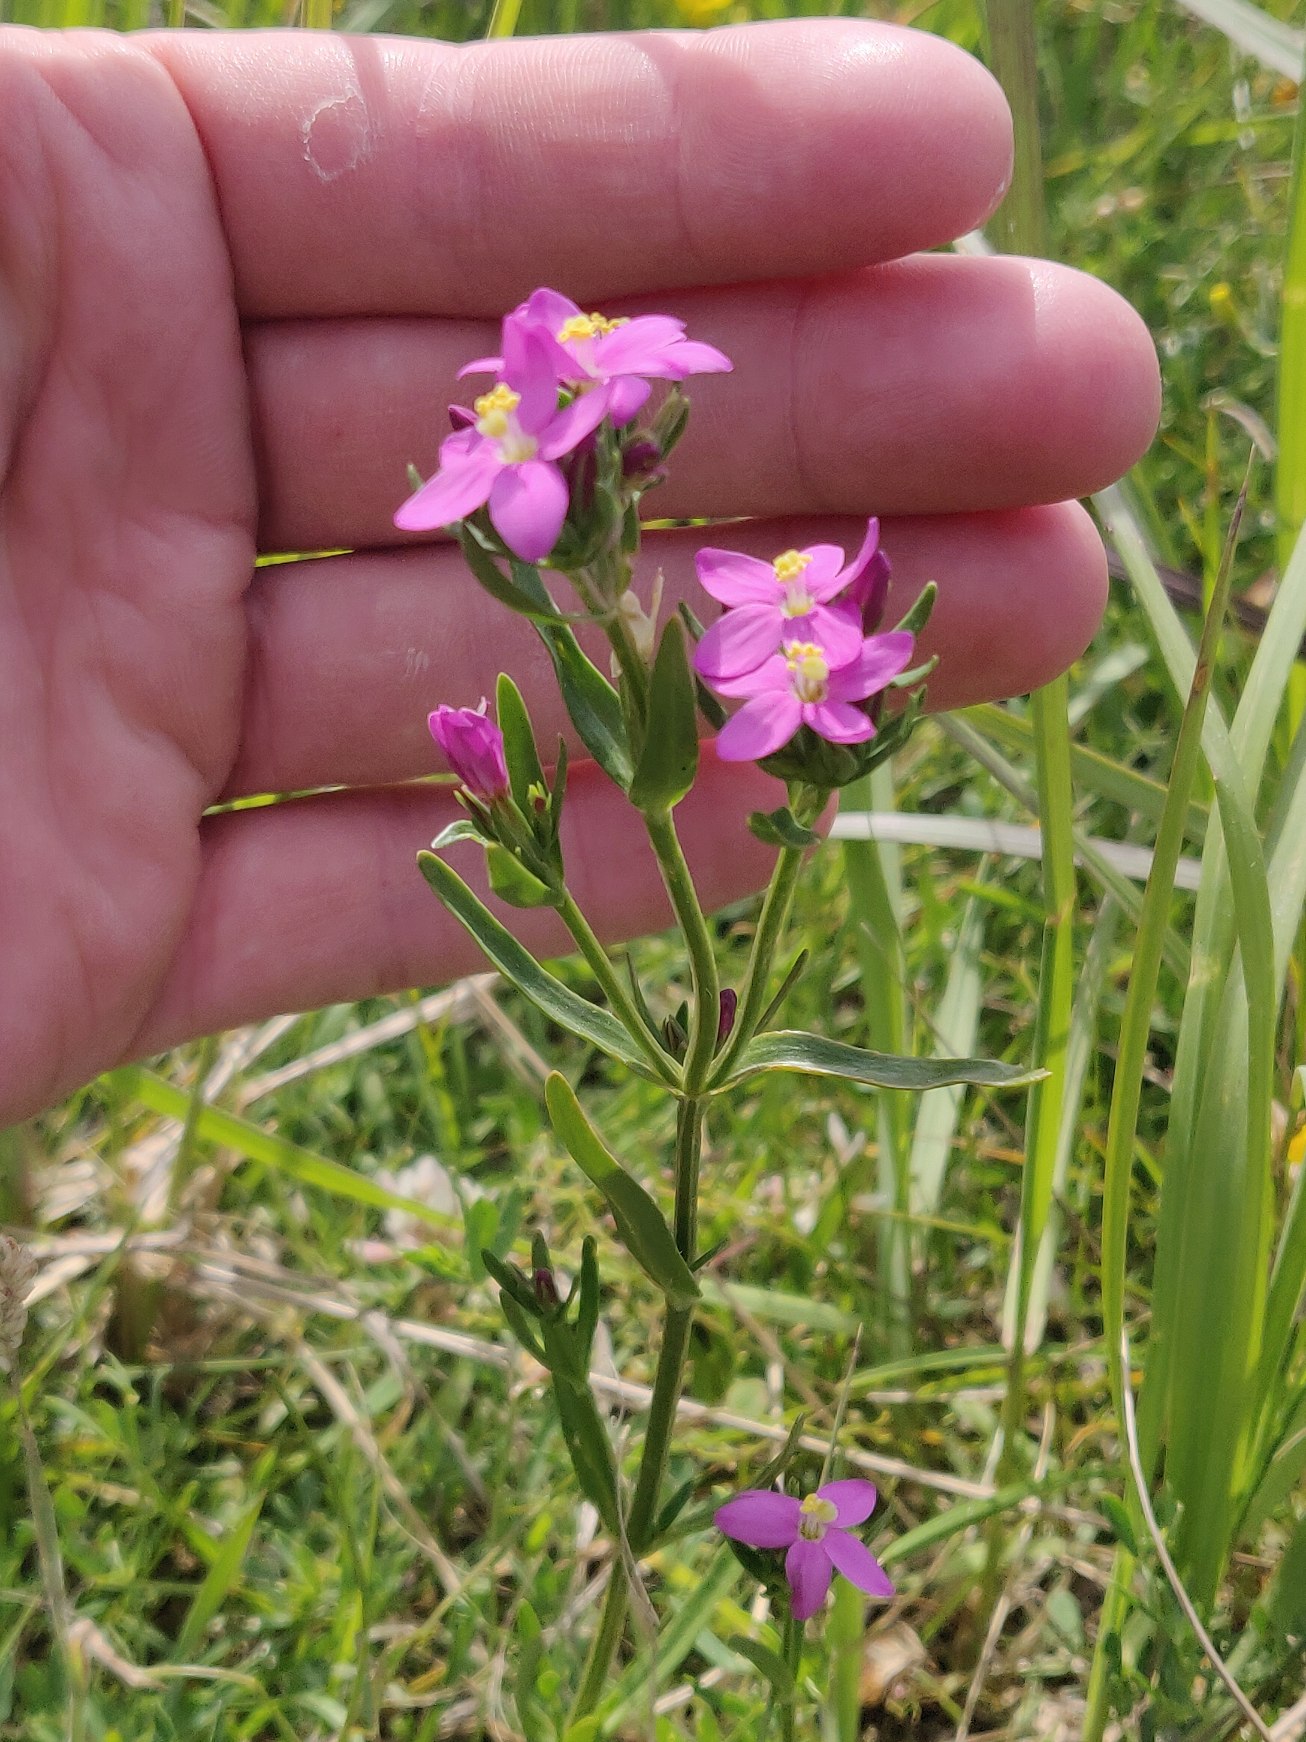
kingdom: Plantae
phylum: Tracheophyta
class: Magnoliopsida
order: Gentianales
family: Gentianaceae
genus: Centaurium
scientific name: Centaurium littorale
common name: Strand-tusindgylden
